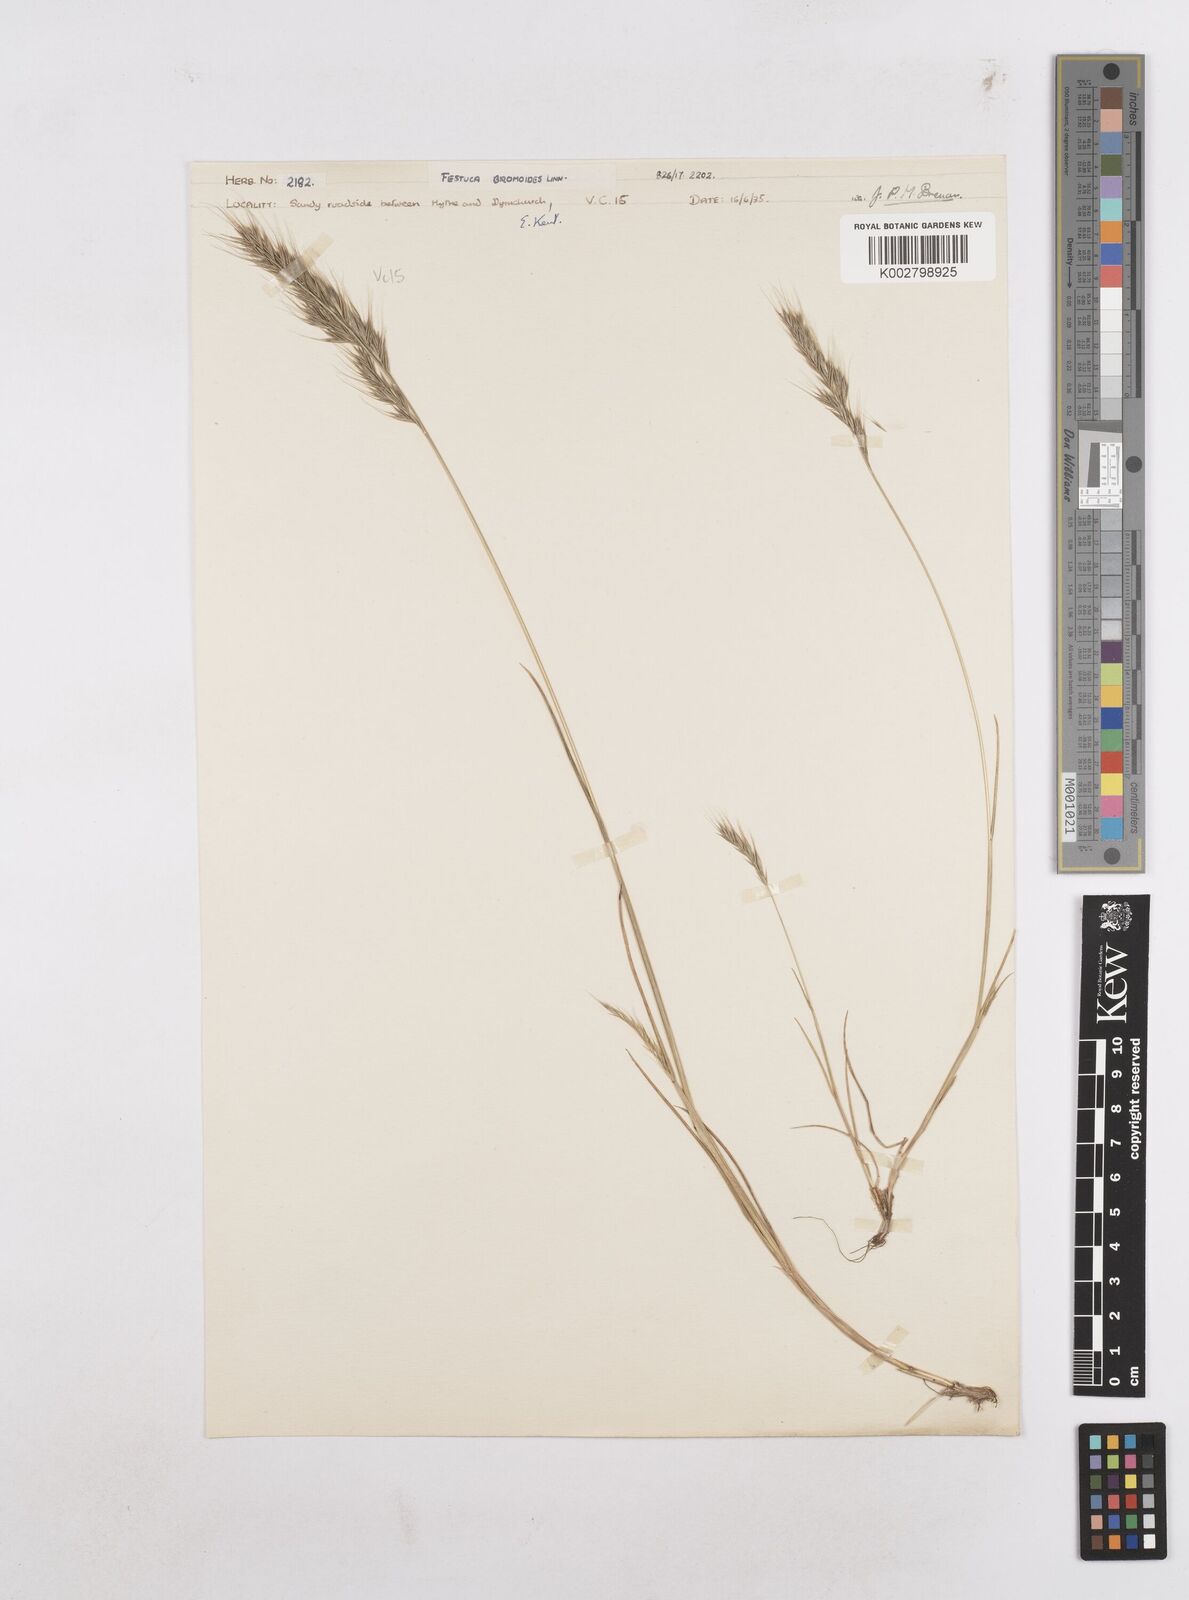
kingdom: Plantae
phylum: Tracheophyta
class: Liliopsida
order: Poales
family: Poaceae
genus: Festuca
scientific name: Festuca bromoides
